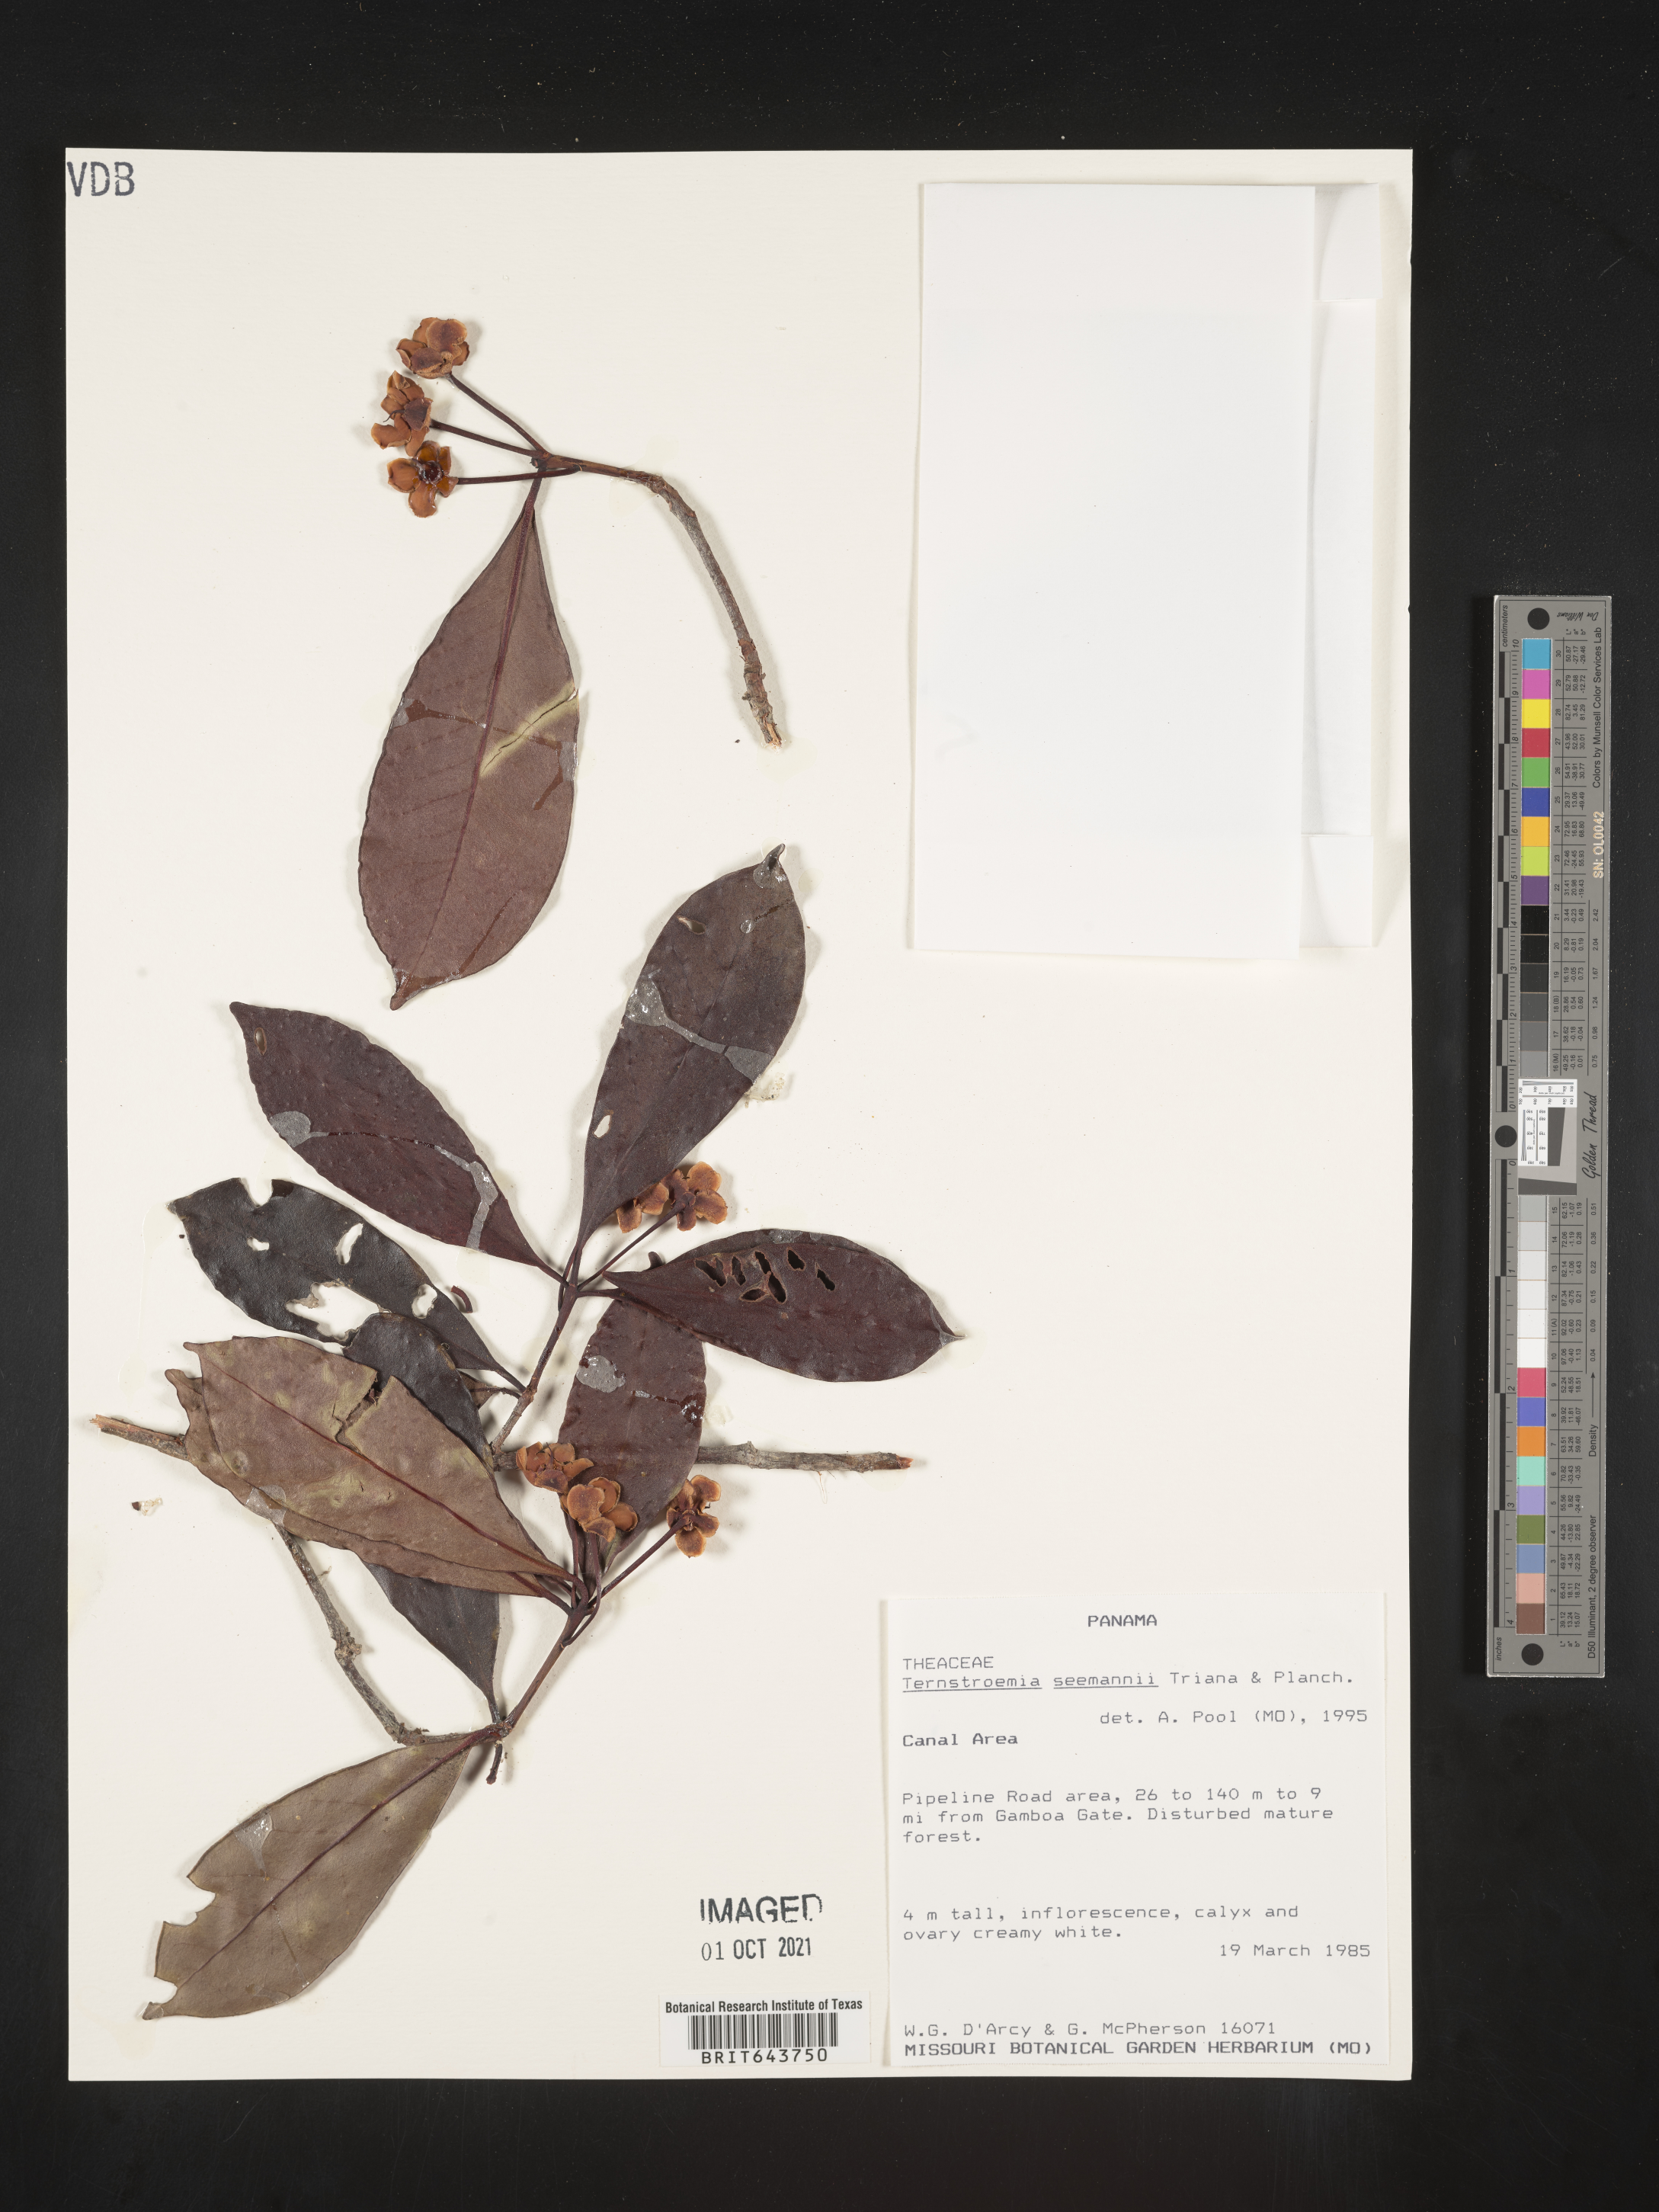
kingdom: Plantae
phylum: Tracheophyta
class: Magnoliopsida
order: Ericales
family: Pentaphylacaceae
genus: Ternstroemia
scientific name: Ternstroemia
